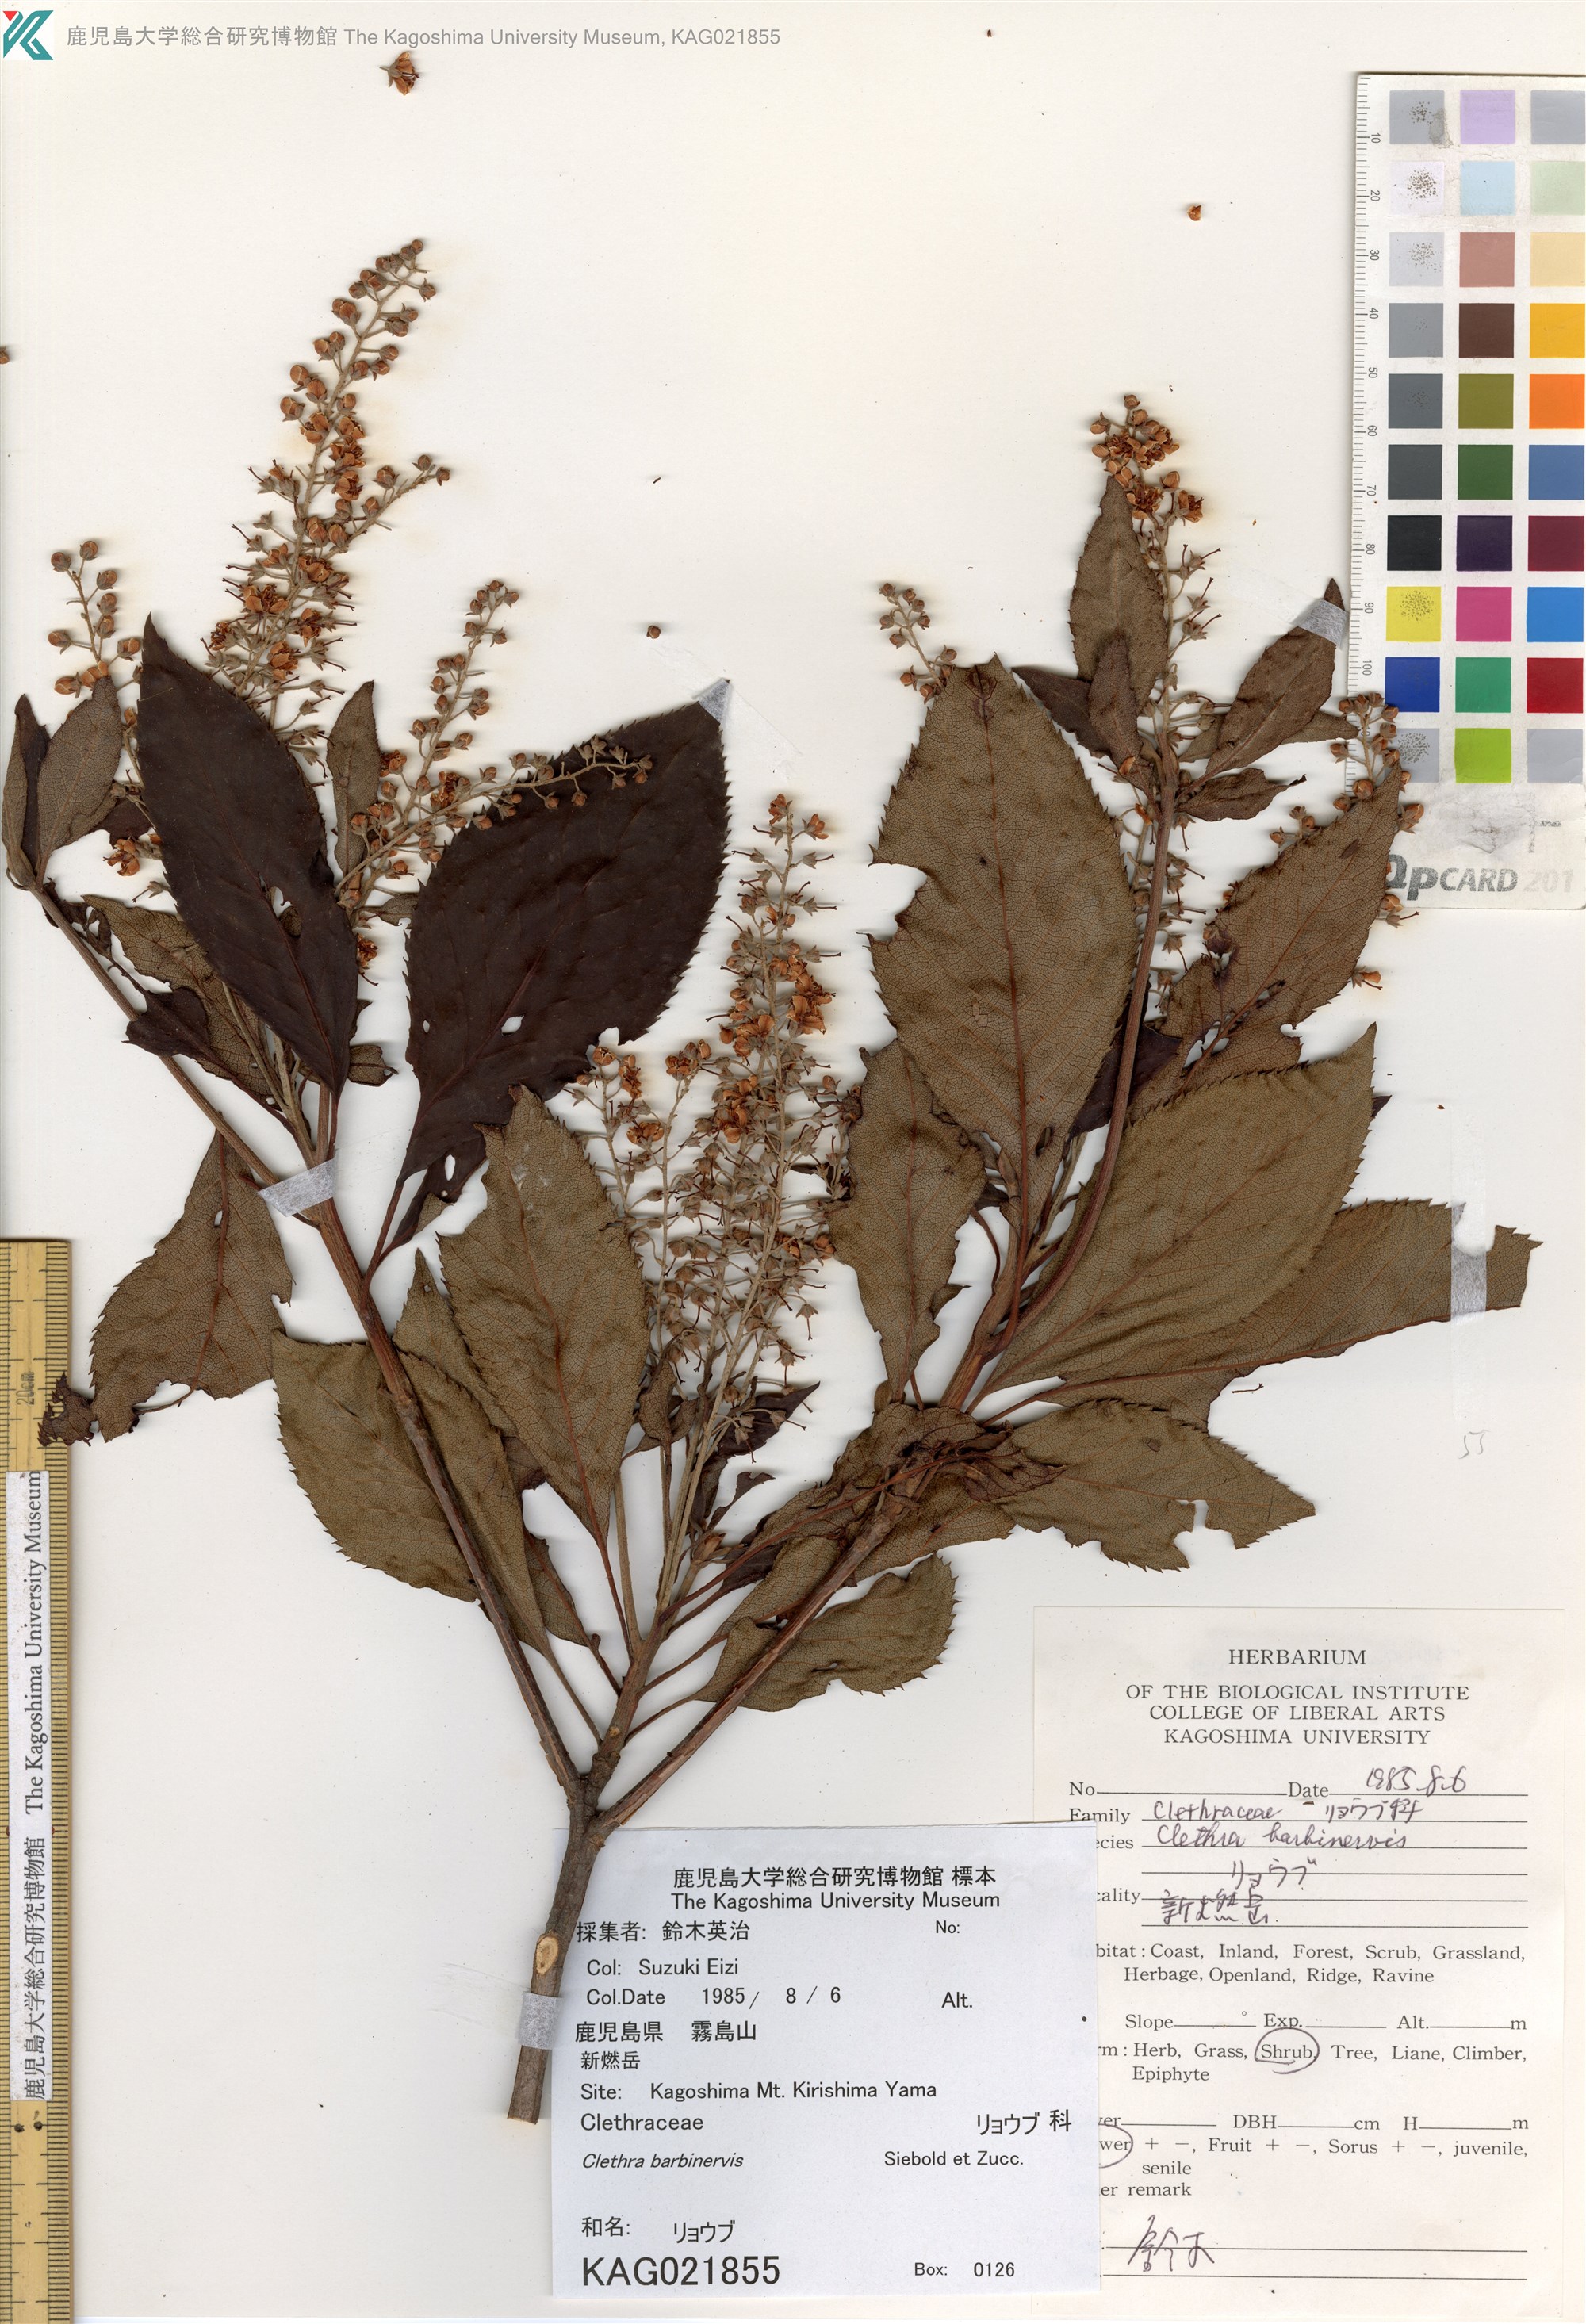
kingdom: Plantae
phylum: Tracheophyta
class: Magnoliopsida
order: Ericales
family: Clethraceae
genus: Clethra
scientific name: Clethra barbinervis
